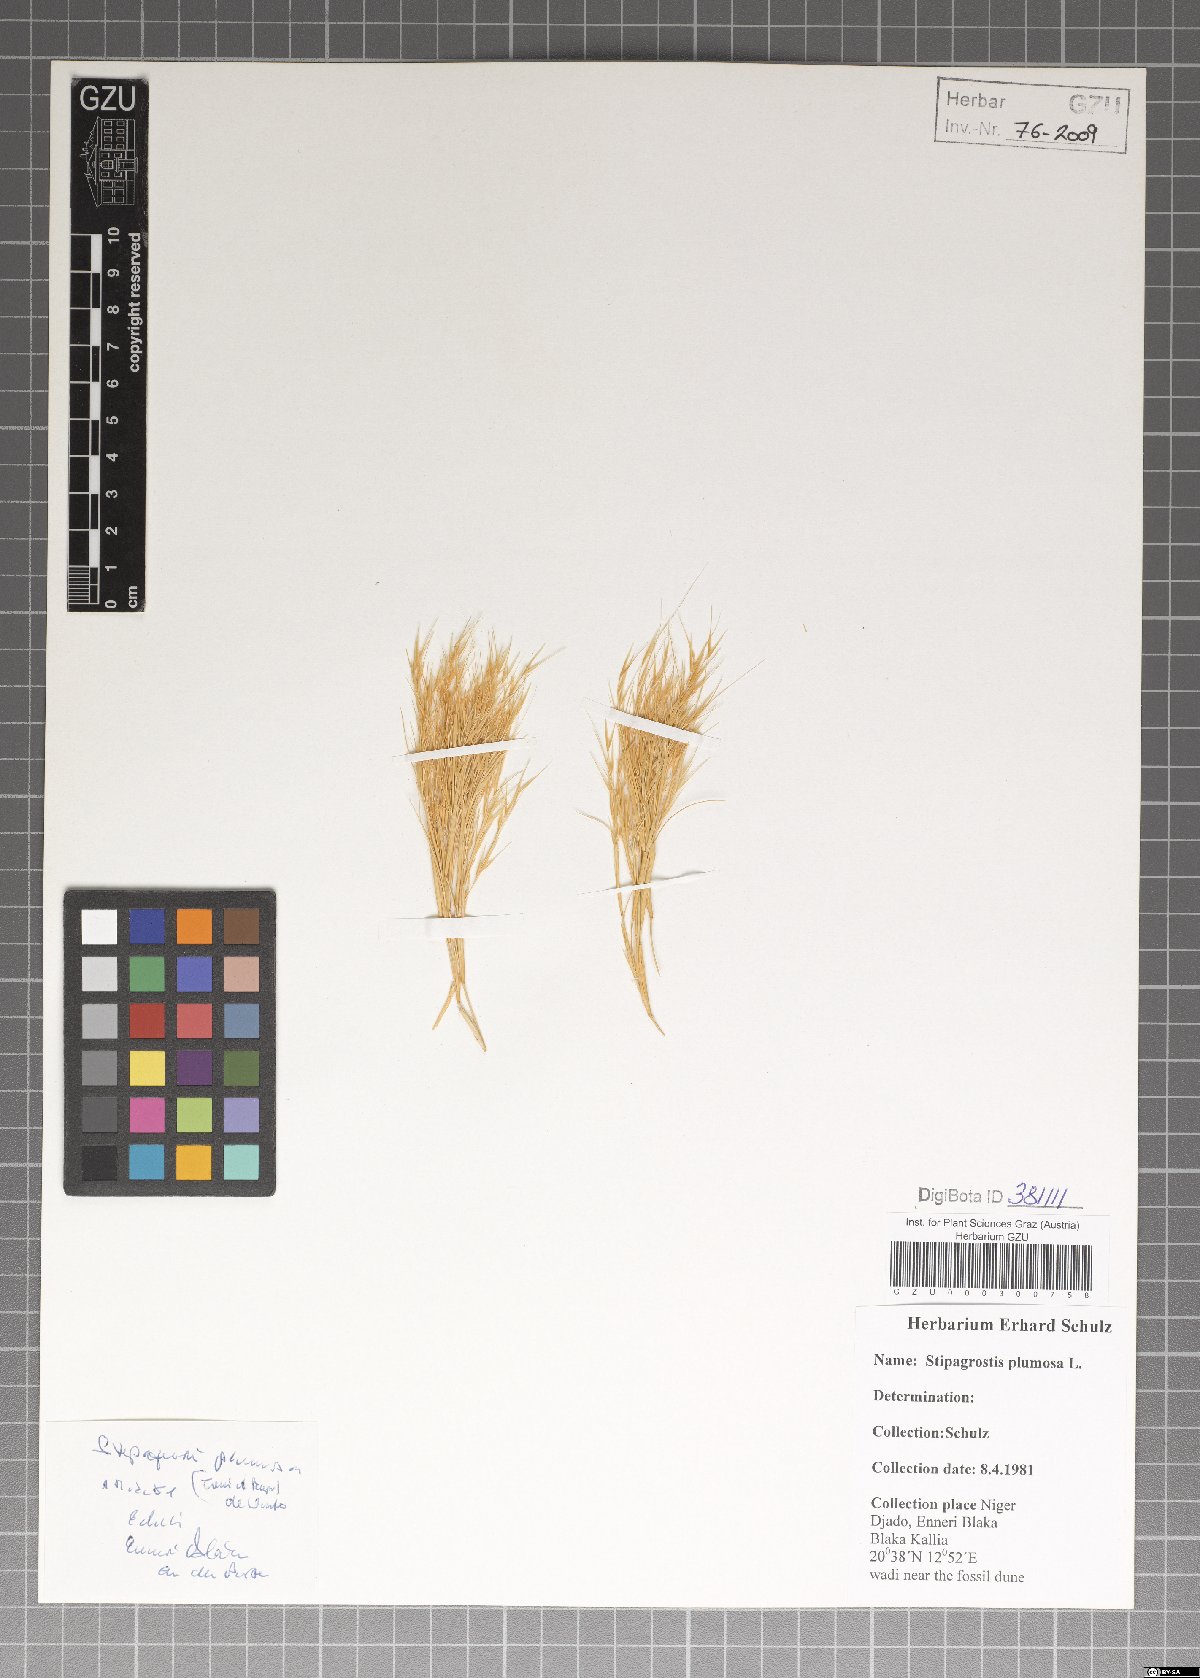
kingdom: Plantae
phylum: Tracheophyta
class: Liliopsida
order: Poales
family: Poaceae
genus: Stipagrostis
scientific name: Stipagrostis plumosa
